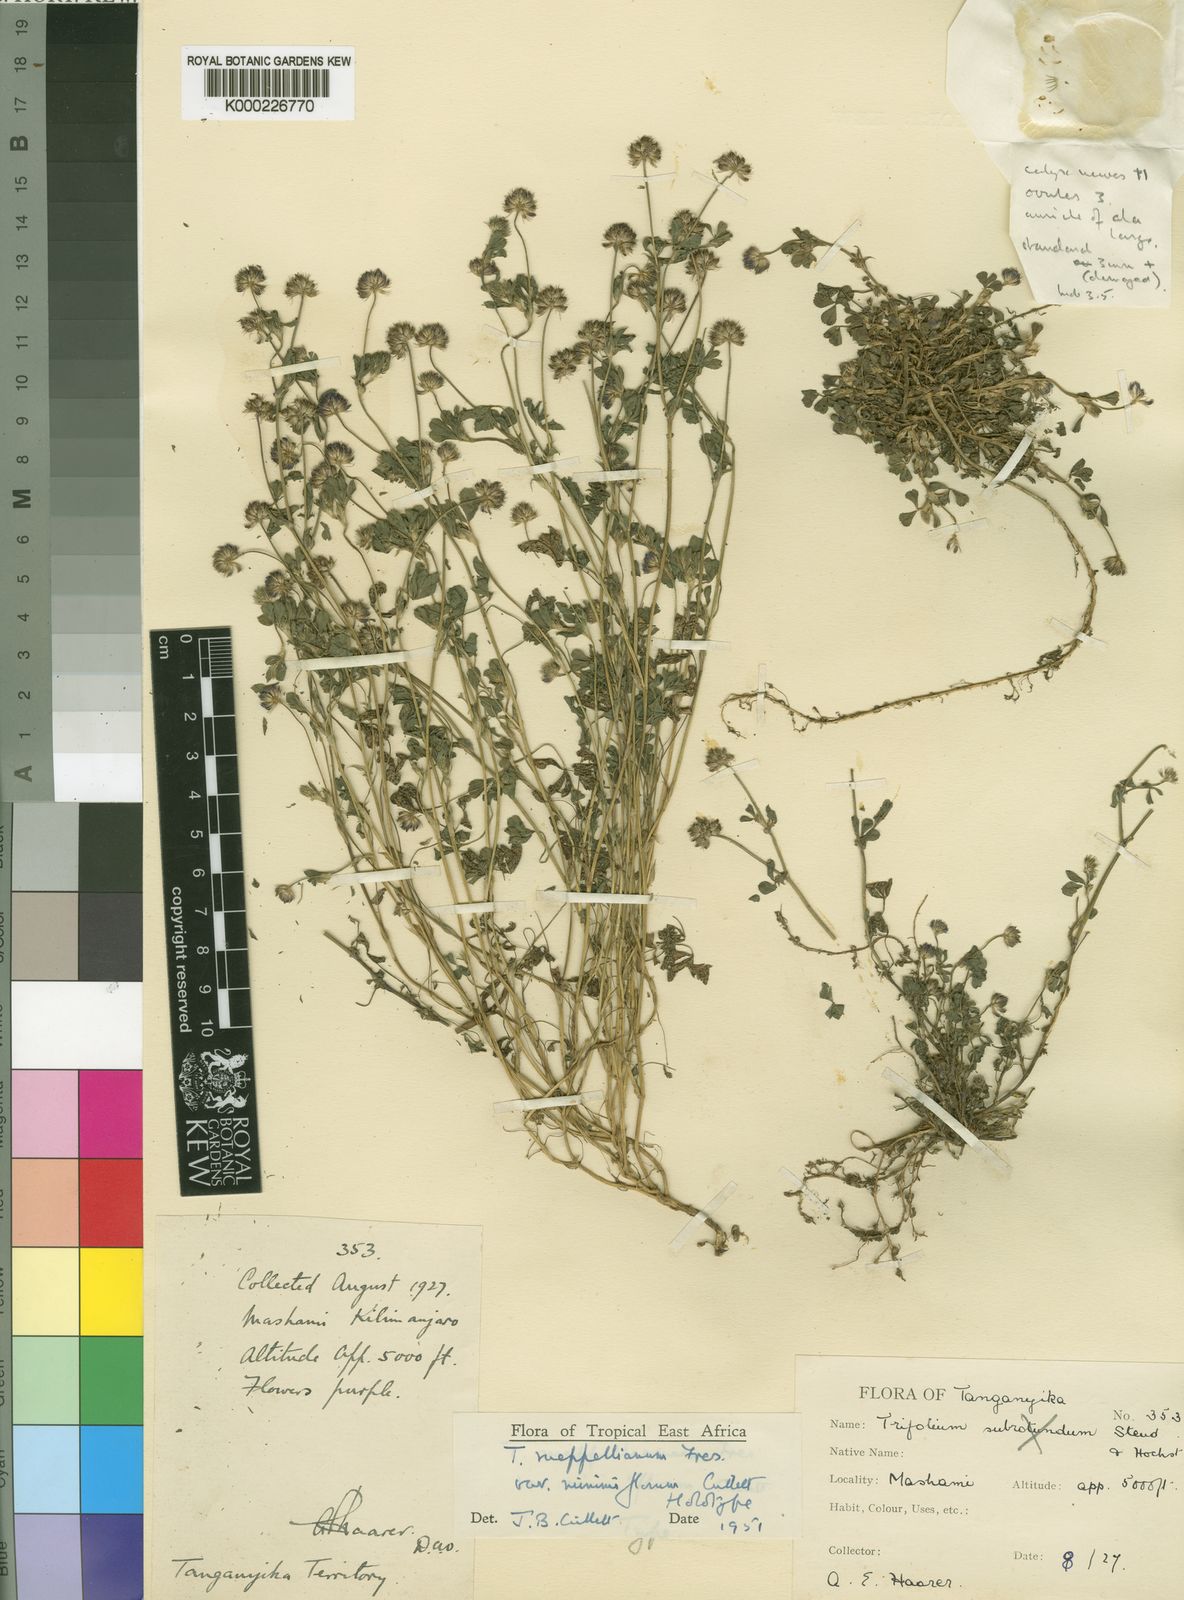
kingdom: Plantae
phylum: Tracheophyta
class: Magnoliopsida
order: Fabales
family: Fabaceae
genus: Trifolium
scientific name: Trifolium rueppellianum
